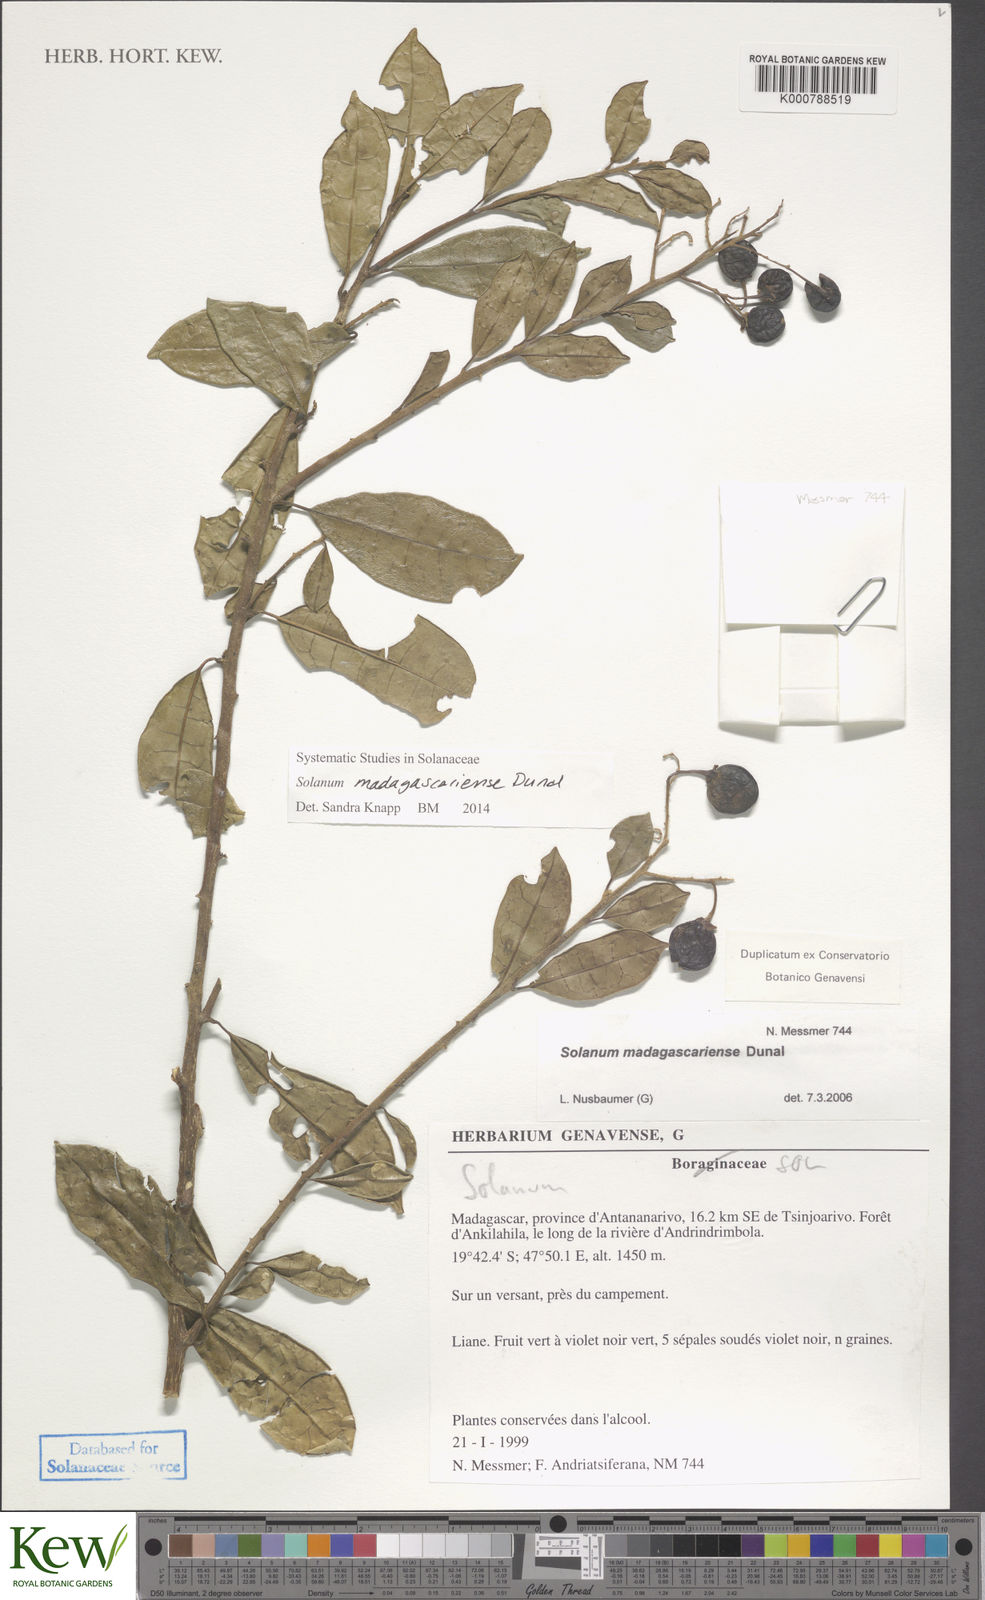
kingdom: Plantae
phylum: Tracheophyta
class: Magnoliopsida
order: Solanales
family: Solanaceae
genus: Solanum
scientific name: Solanum madagascariense
